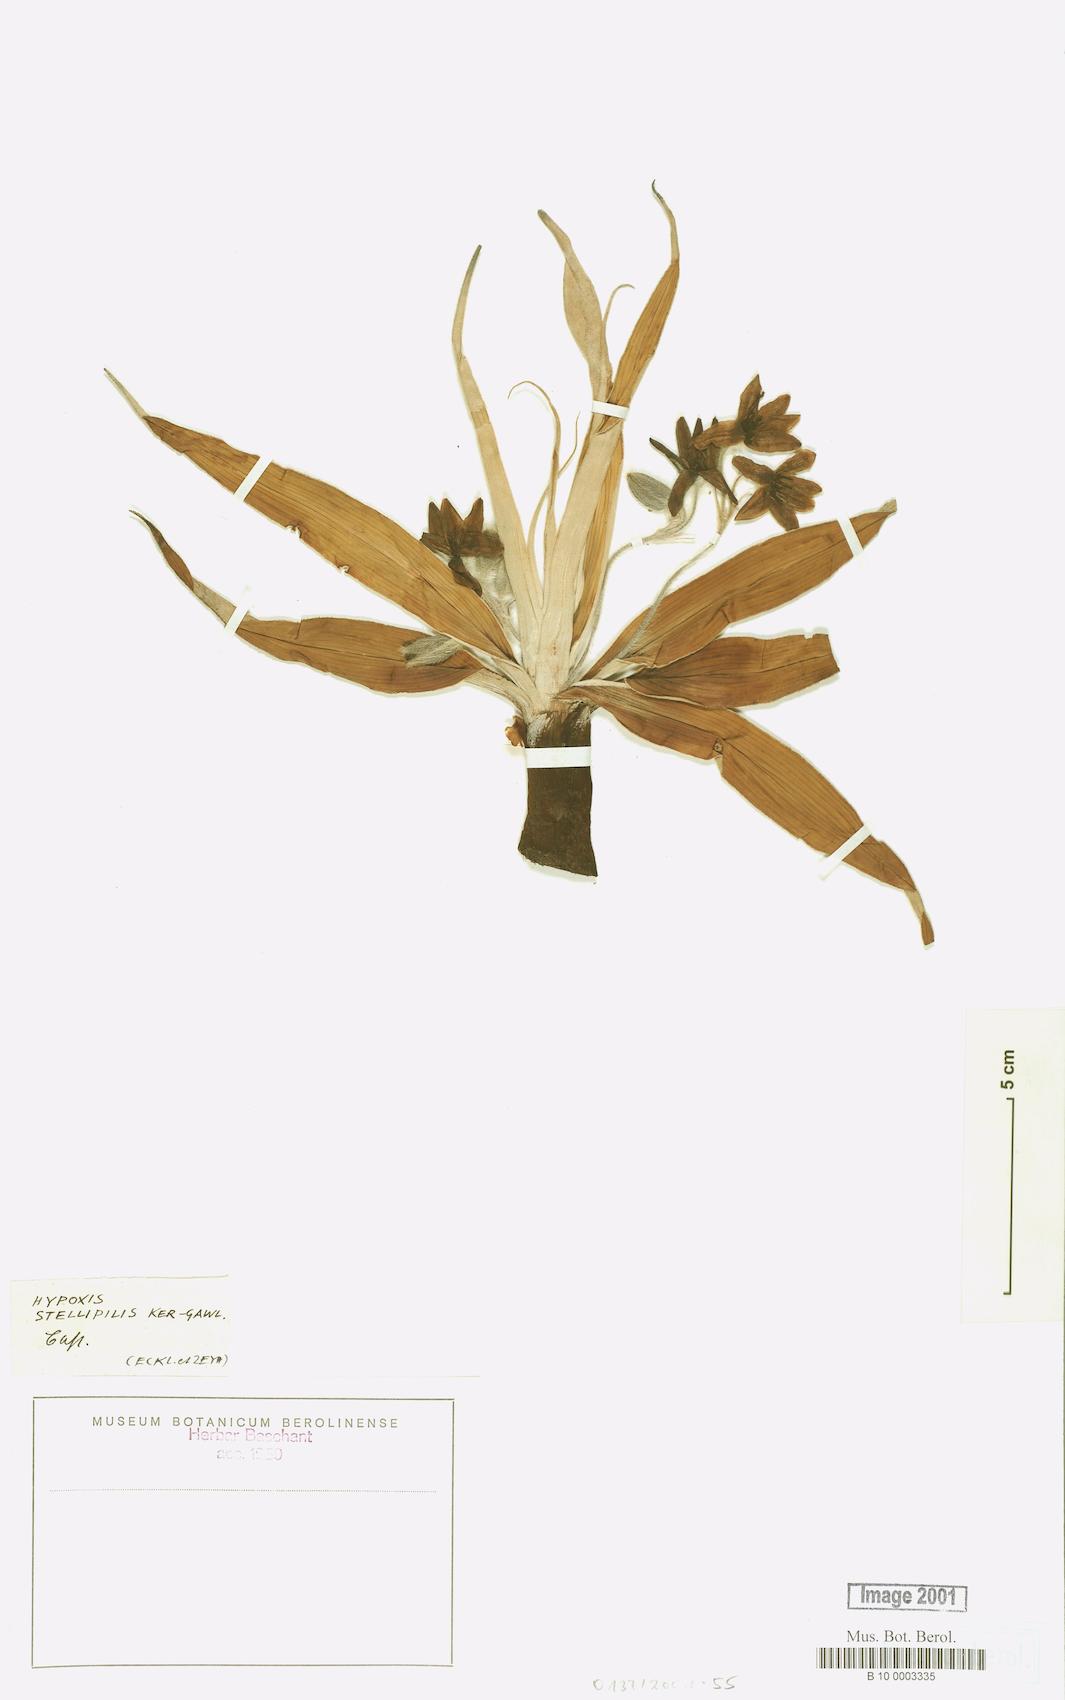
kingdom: Plantae
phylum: Tracheophyta
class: Liliopsida
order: Asparagales
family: Hypoxidaceae
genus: Hypoxis
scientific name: Hypoxis stellipilis
